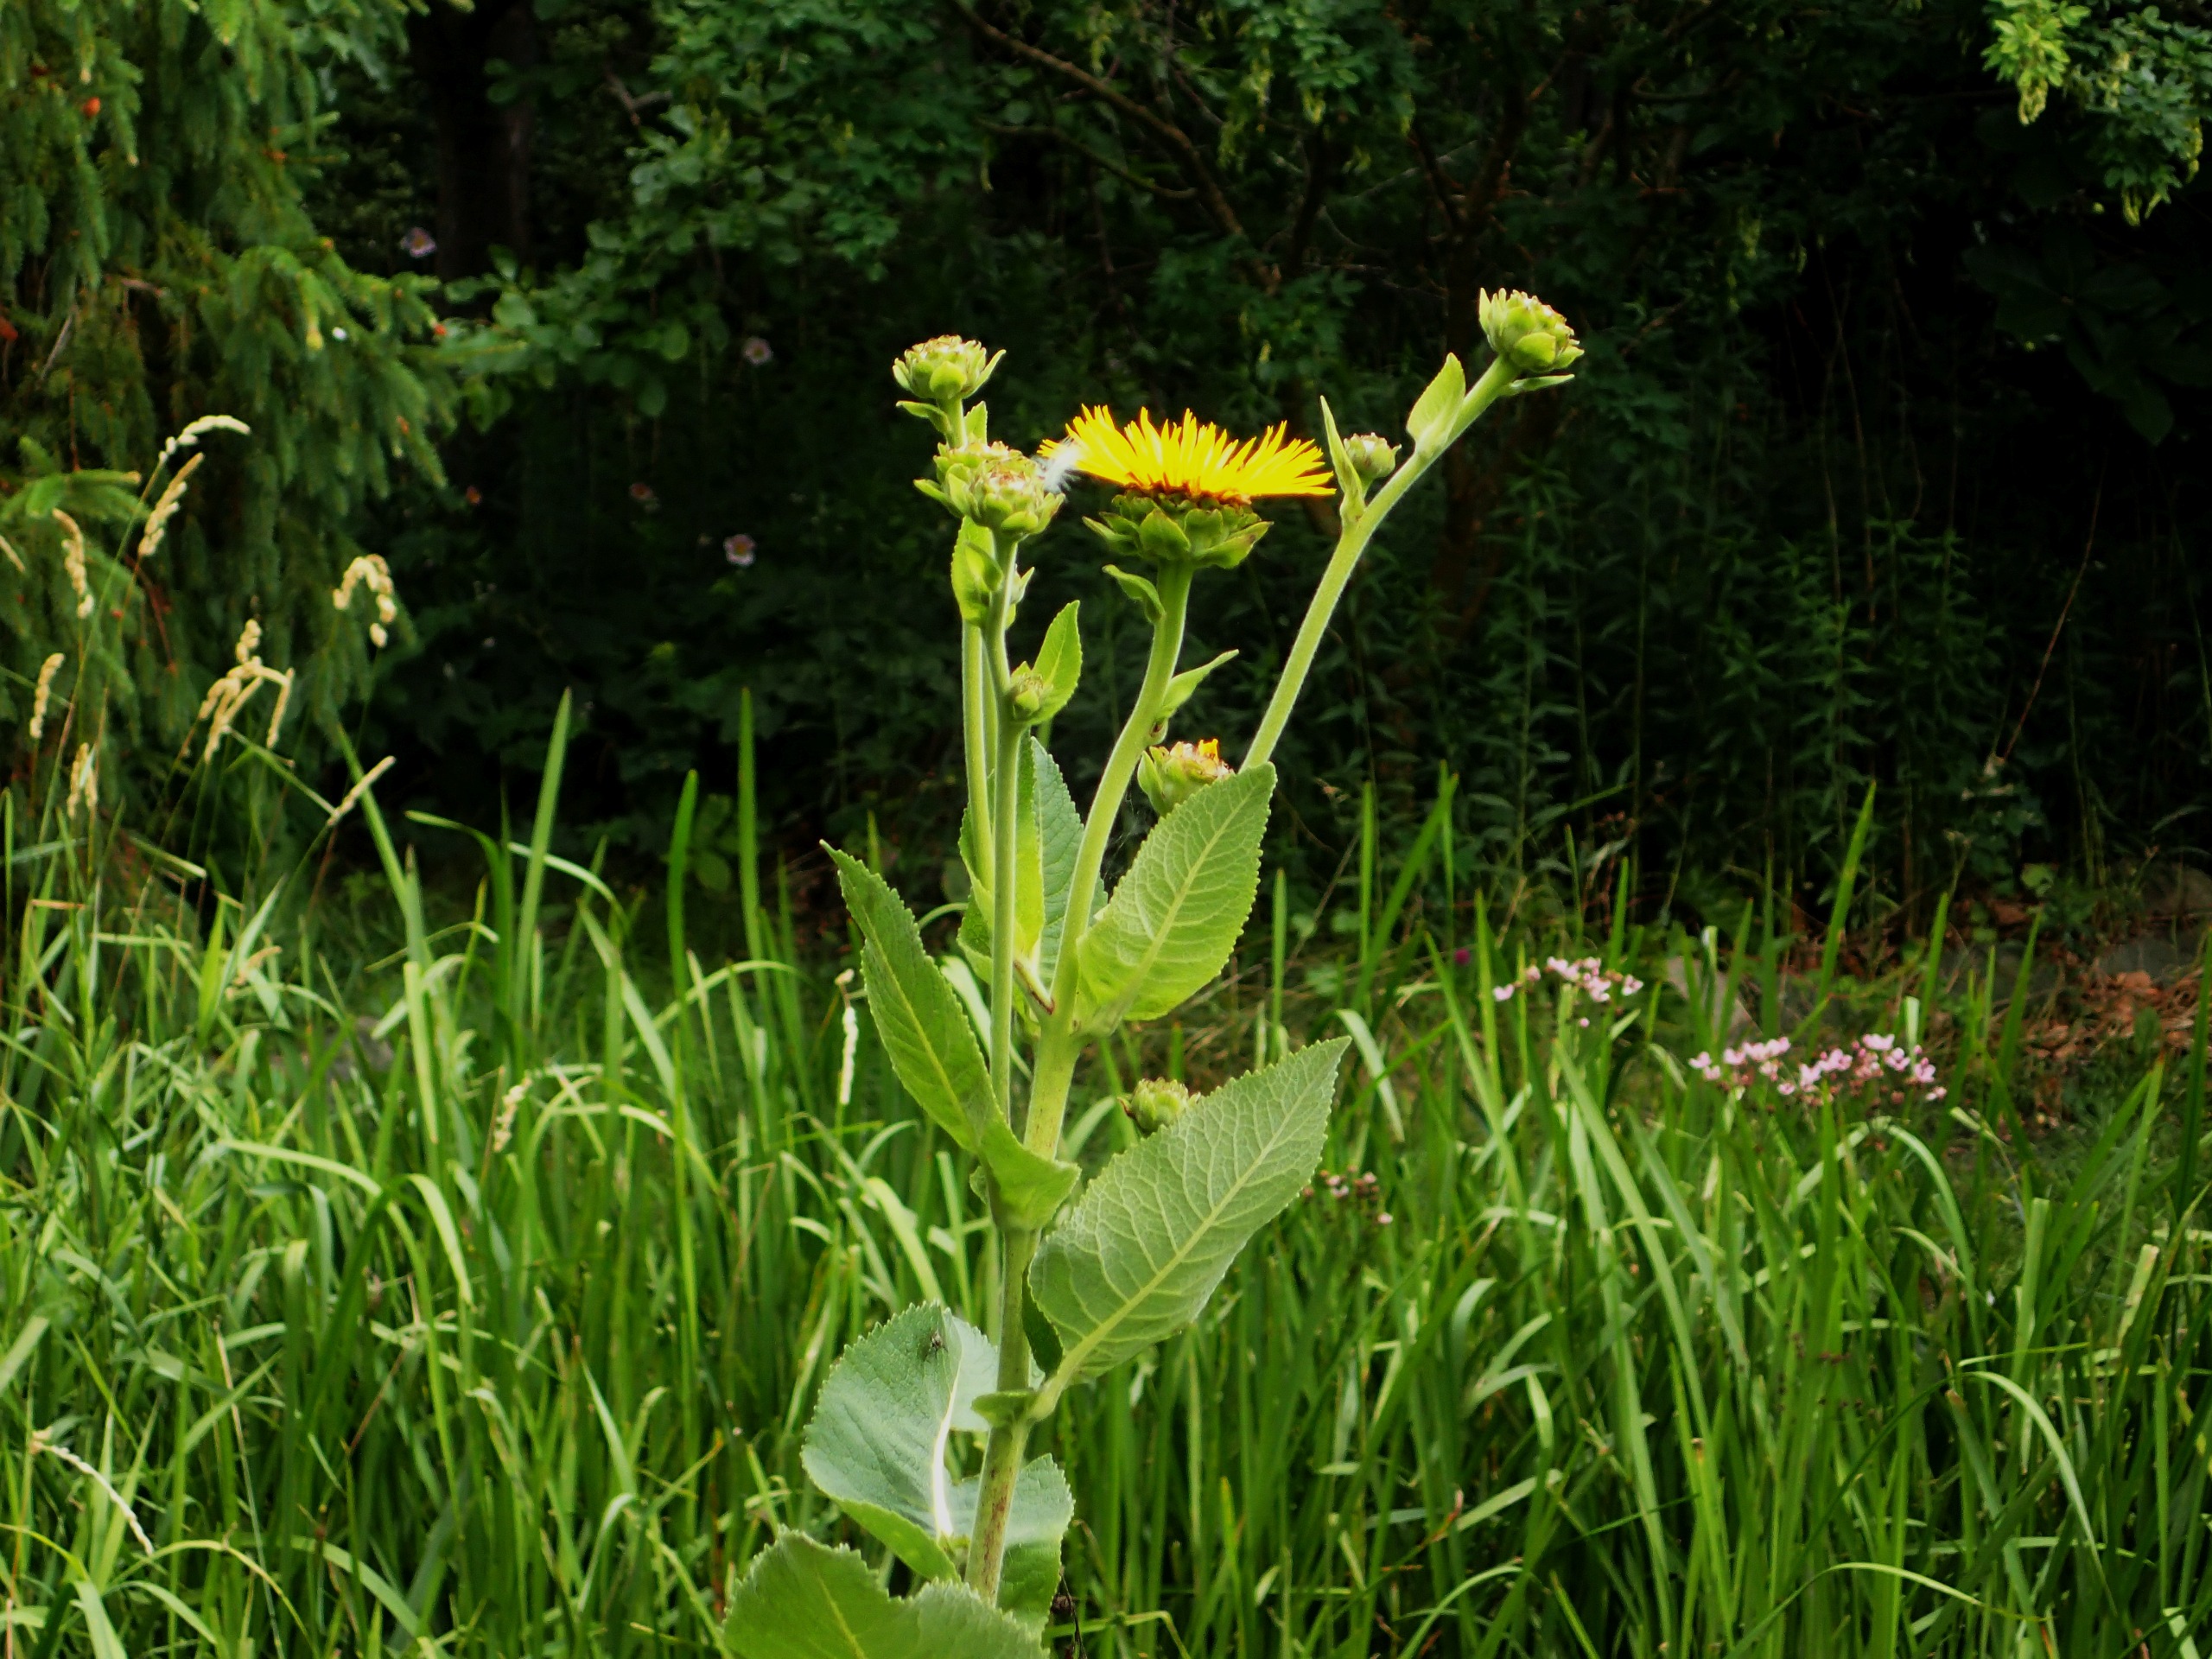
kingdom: Plantae
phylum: Tracheophyta
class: Magnoliopsida
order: Asterales
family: Asteraceae
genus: Inula
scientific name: Inula helenium
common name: Læge-alant
